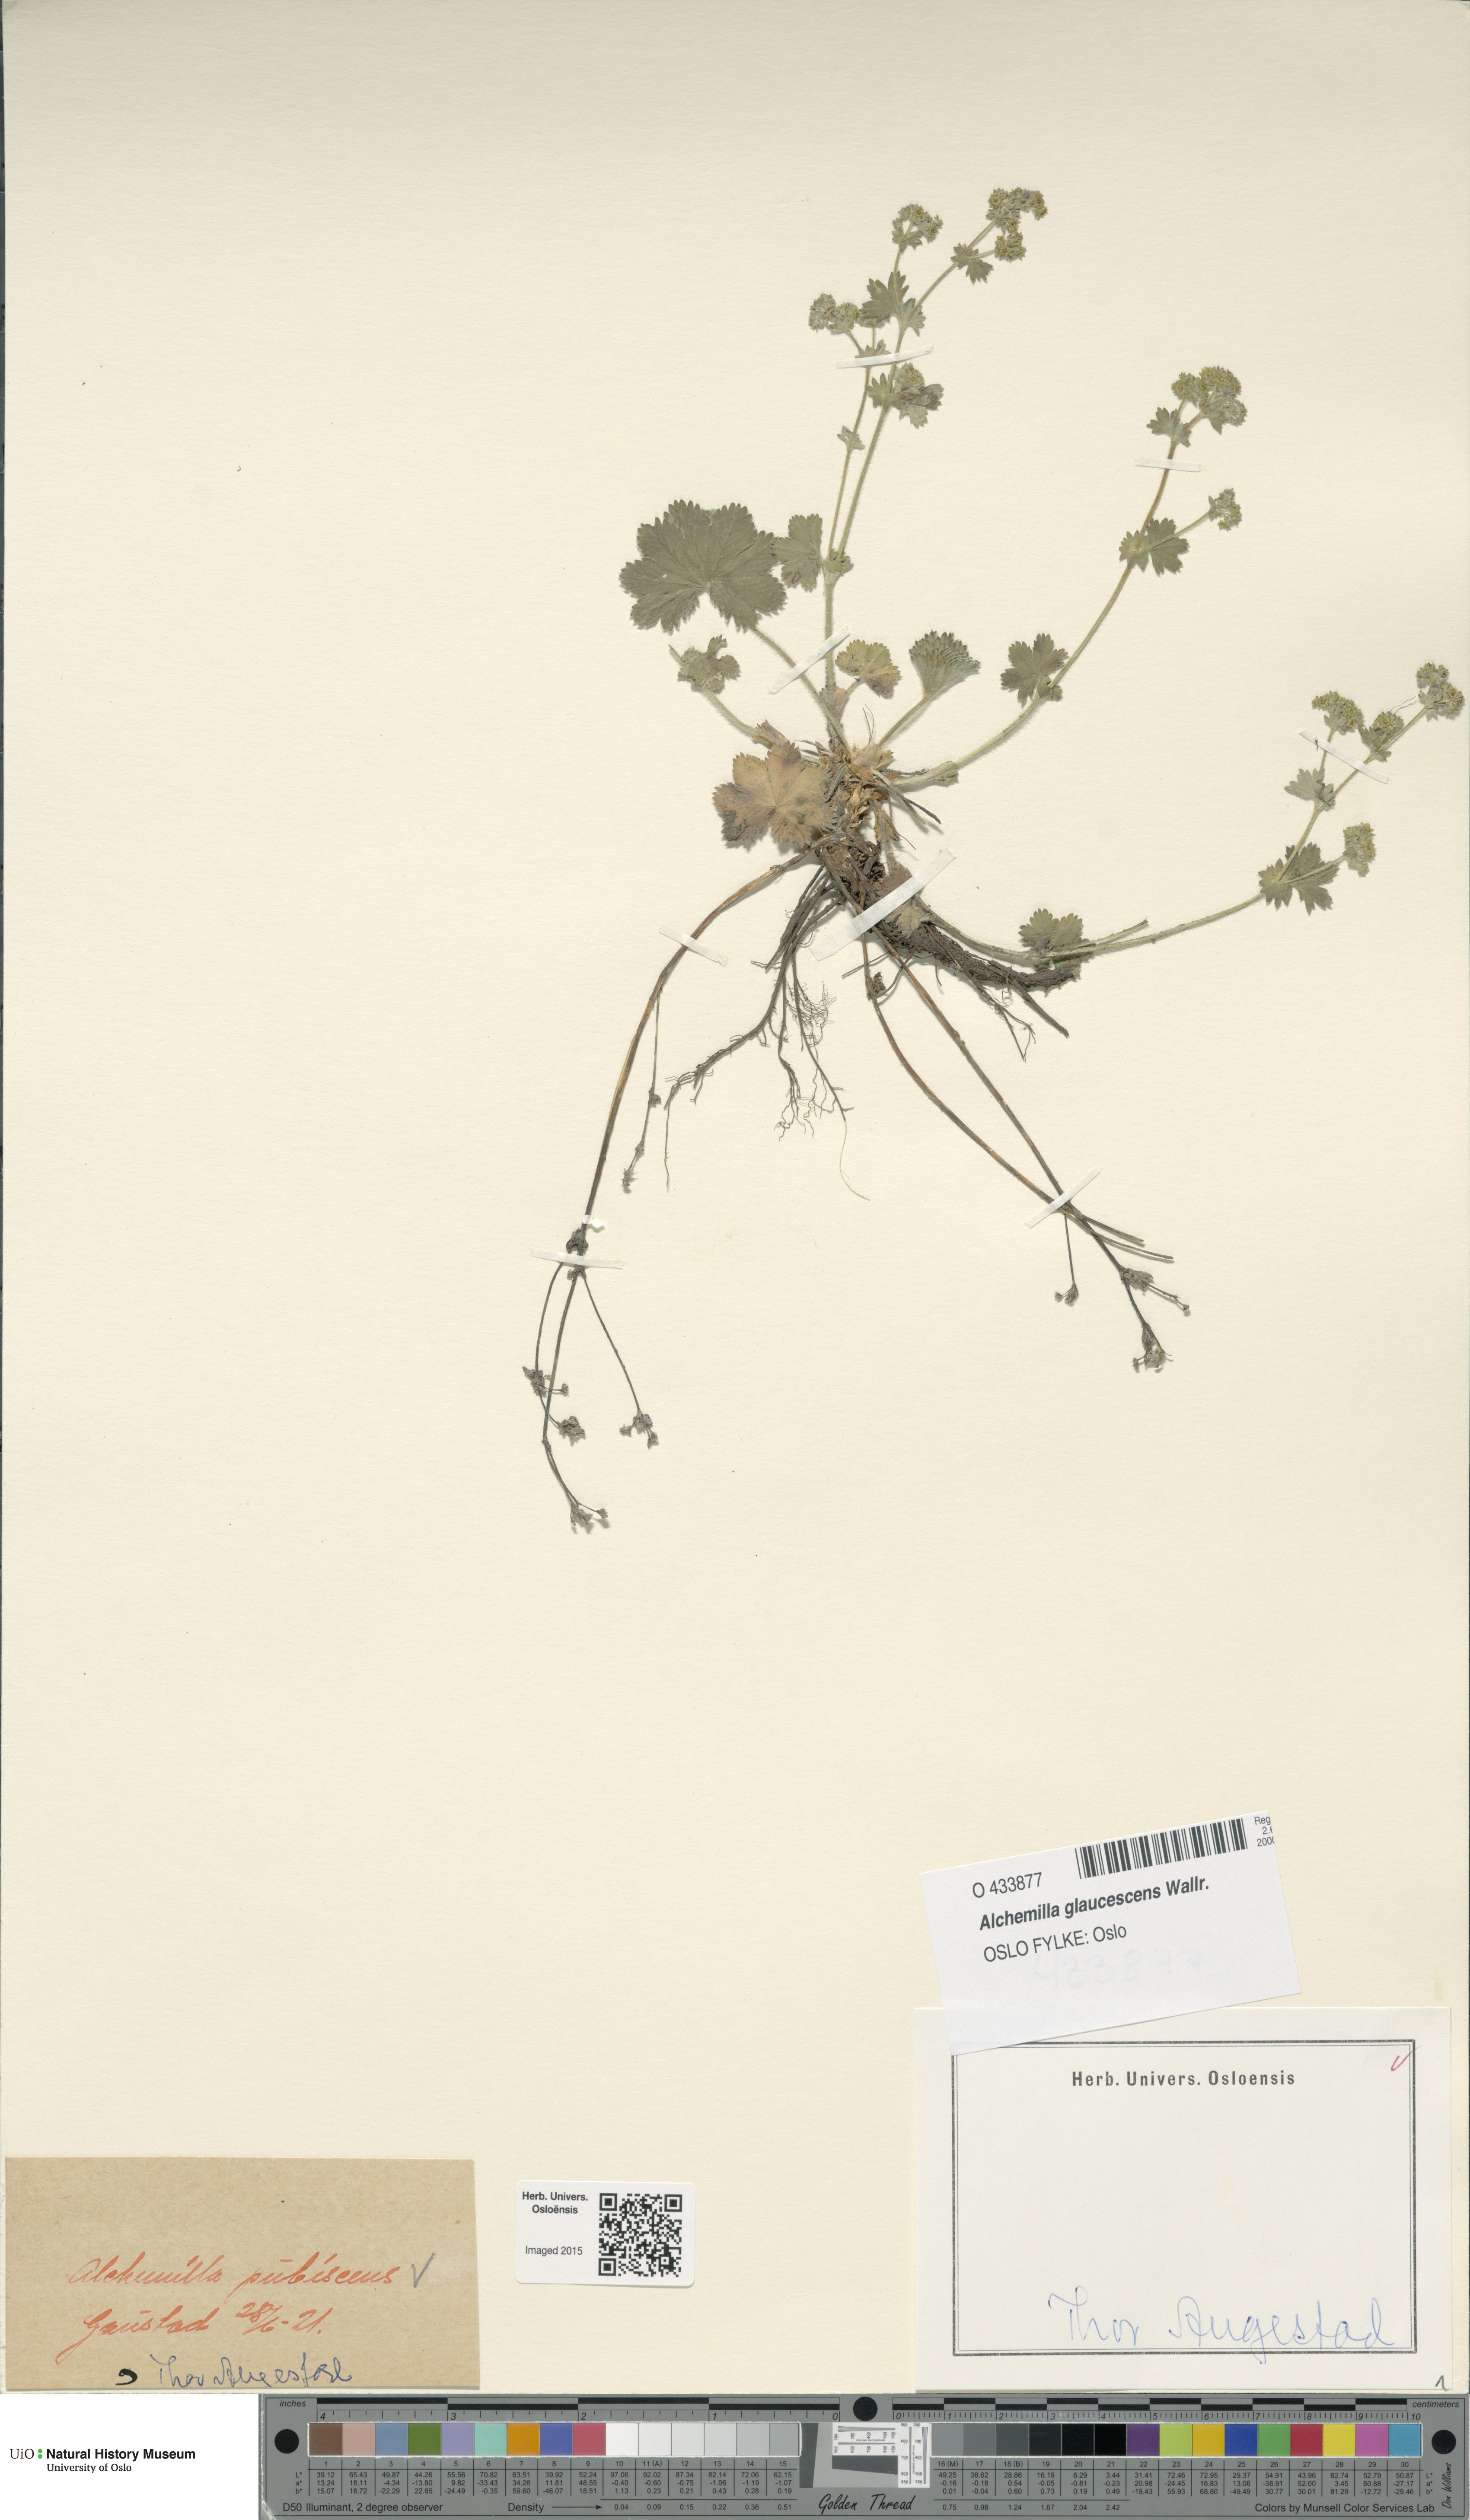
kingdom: Plantae
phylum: Tracheophyta
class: Magnoliopsida
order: Rosales
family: Rosaceae
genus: Alchemilla
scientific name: Alchemilla glaucescens
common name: Silky lady's mantle
